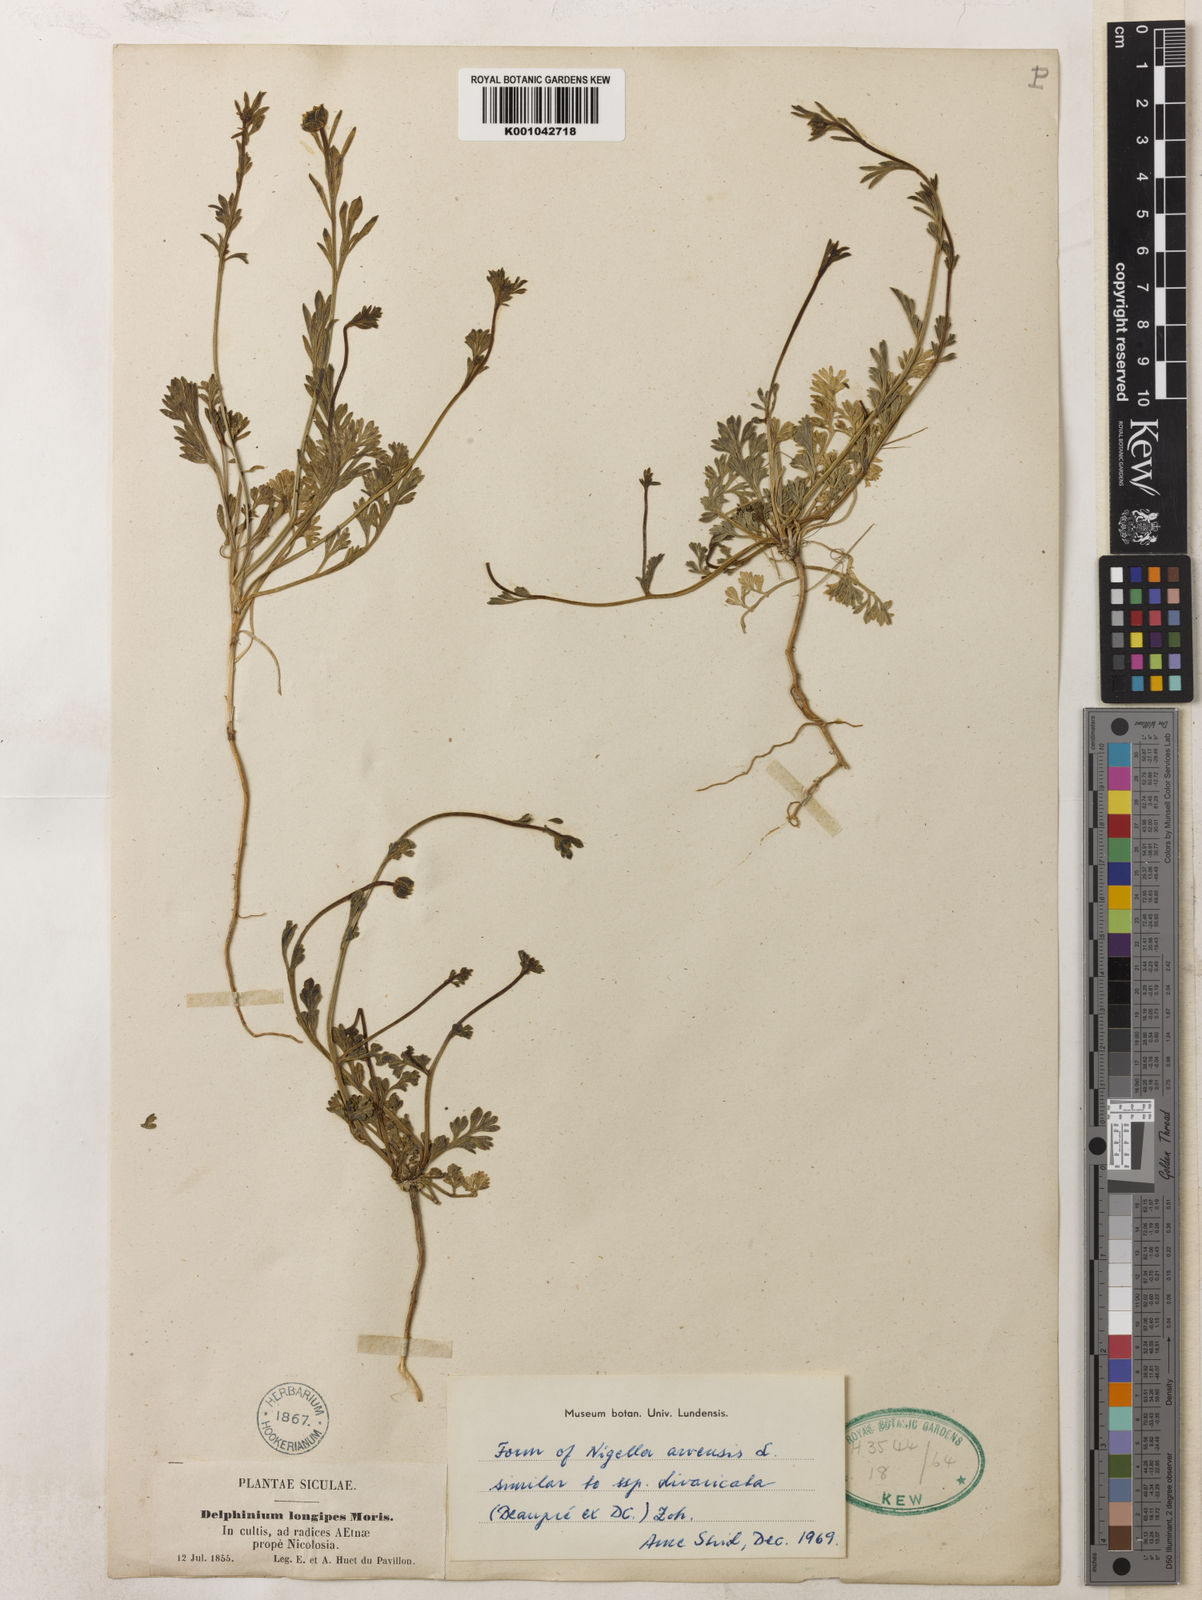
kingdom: Plantae
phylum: Tracheophyta
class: Magnoliopsida
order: Ranunculales
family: Ranunculaceae
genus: Nigella
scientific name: Nigella arvensis
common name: Wild fennel-flower
